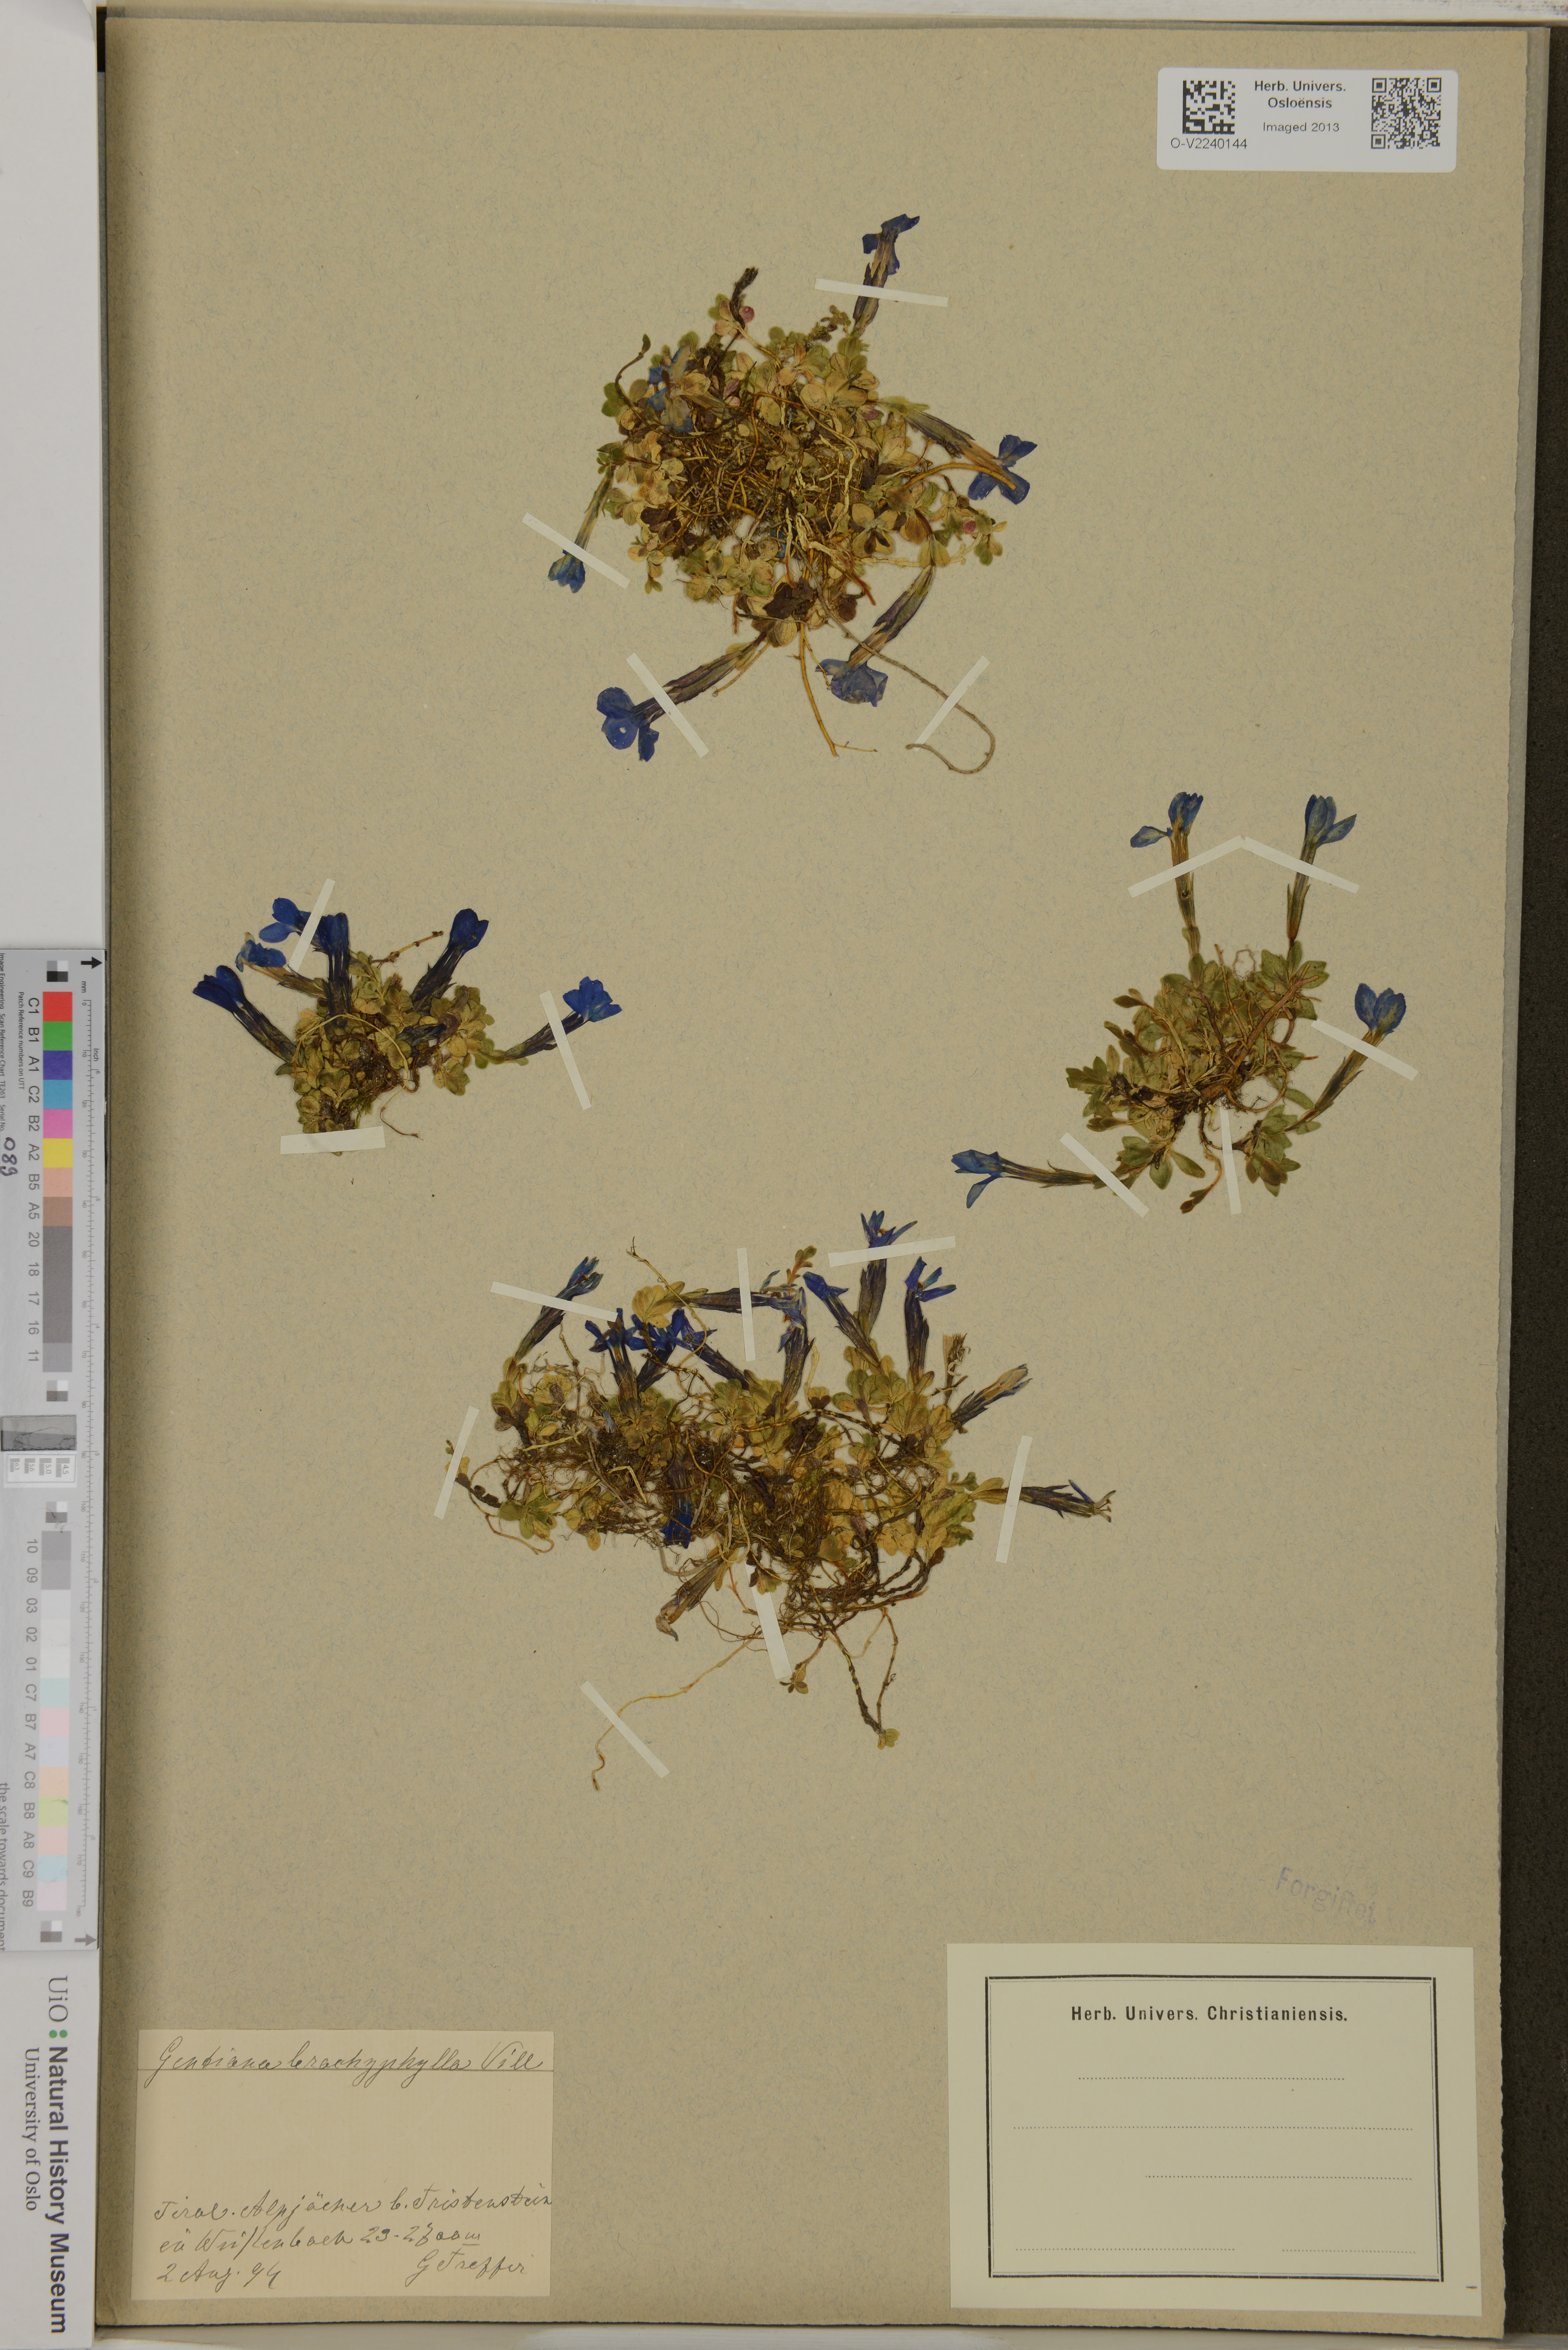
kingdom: Plantae
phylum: Tracheophyta
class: Magnoliopsida
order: Gentianales
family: Gentianaceae
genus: Gentiana
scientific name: Gentiana brachyphylla
